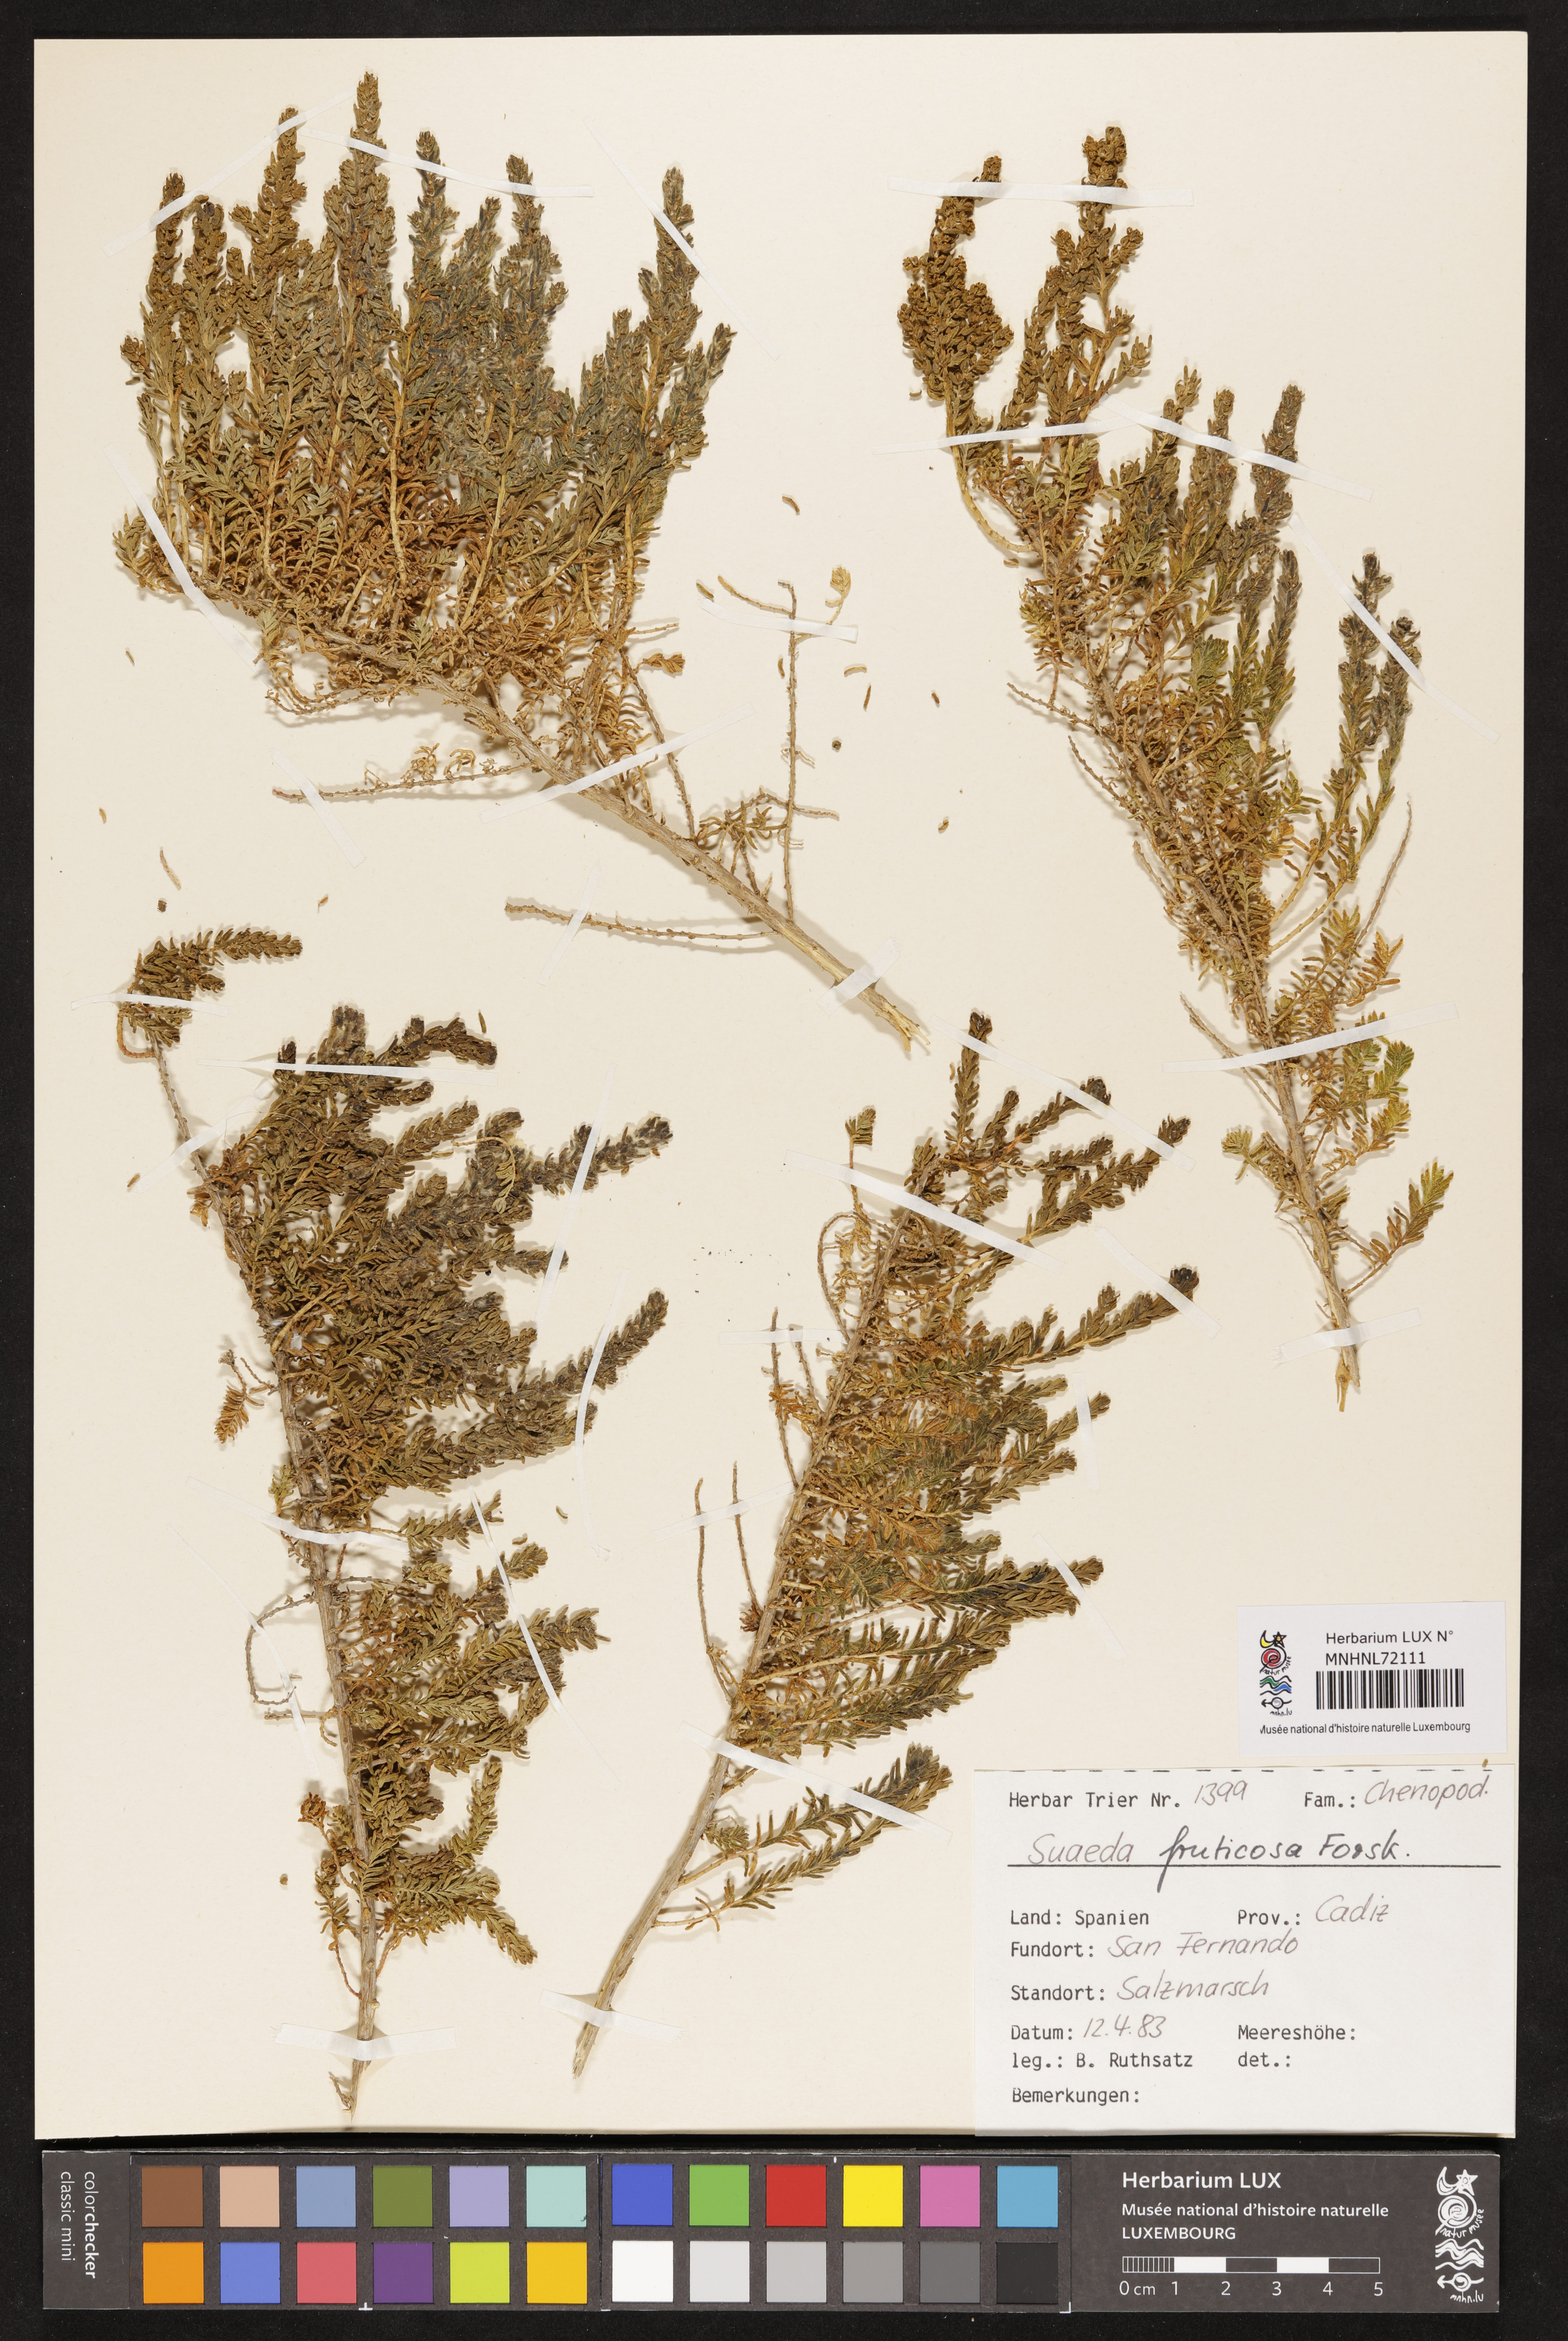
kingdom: Plantae
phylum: Tracheophyta
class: Magnoliopsida
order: Caryophyllales
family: Amaranthaceae
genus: Suaeda
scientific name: Suaeda fruticosa
